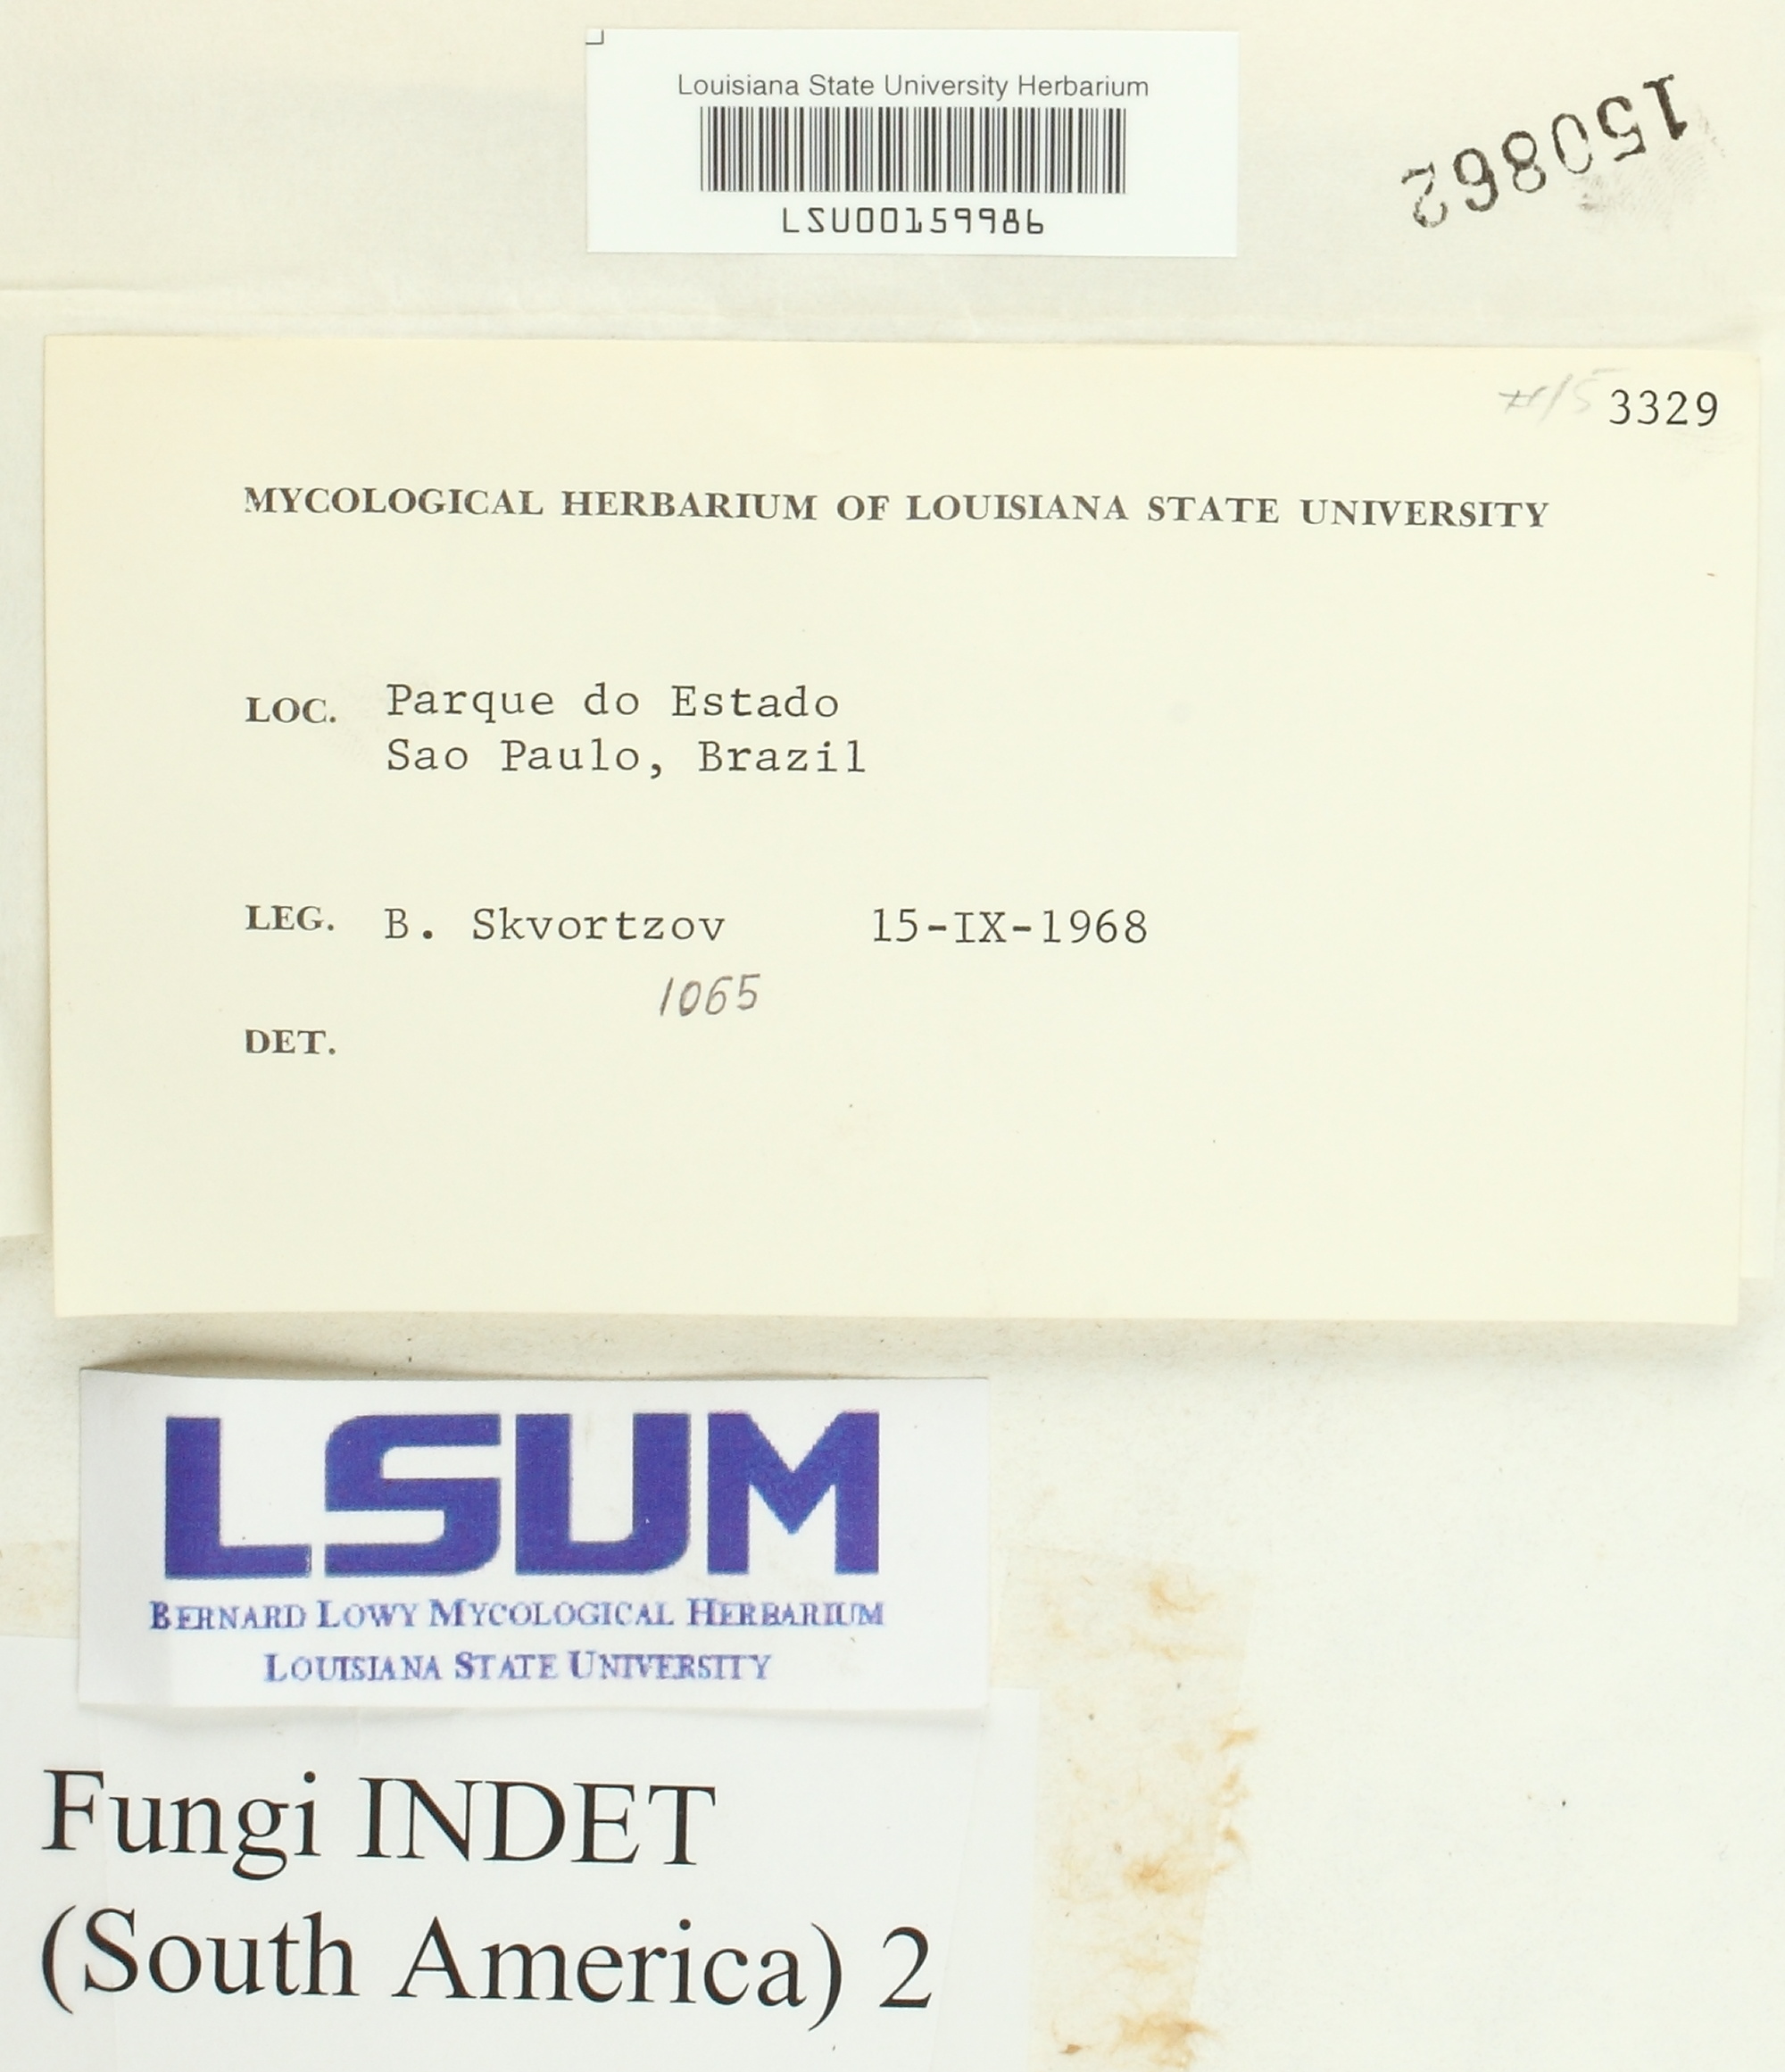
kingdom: Fungi
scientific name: Fungi
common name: Fungi
